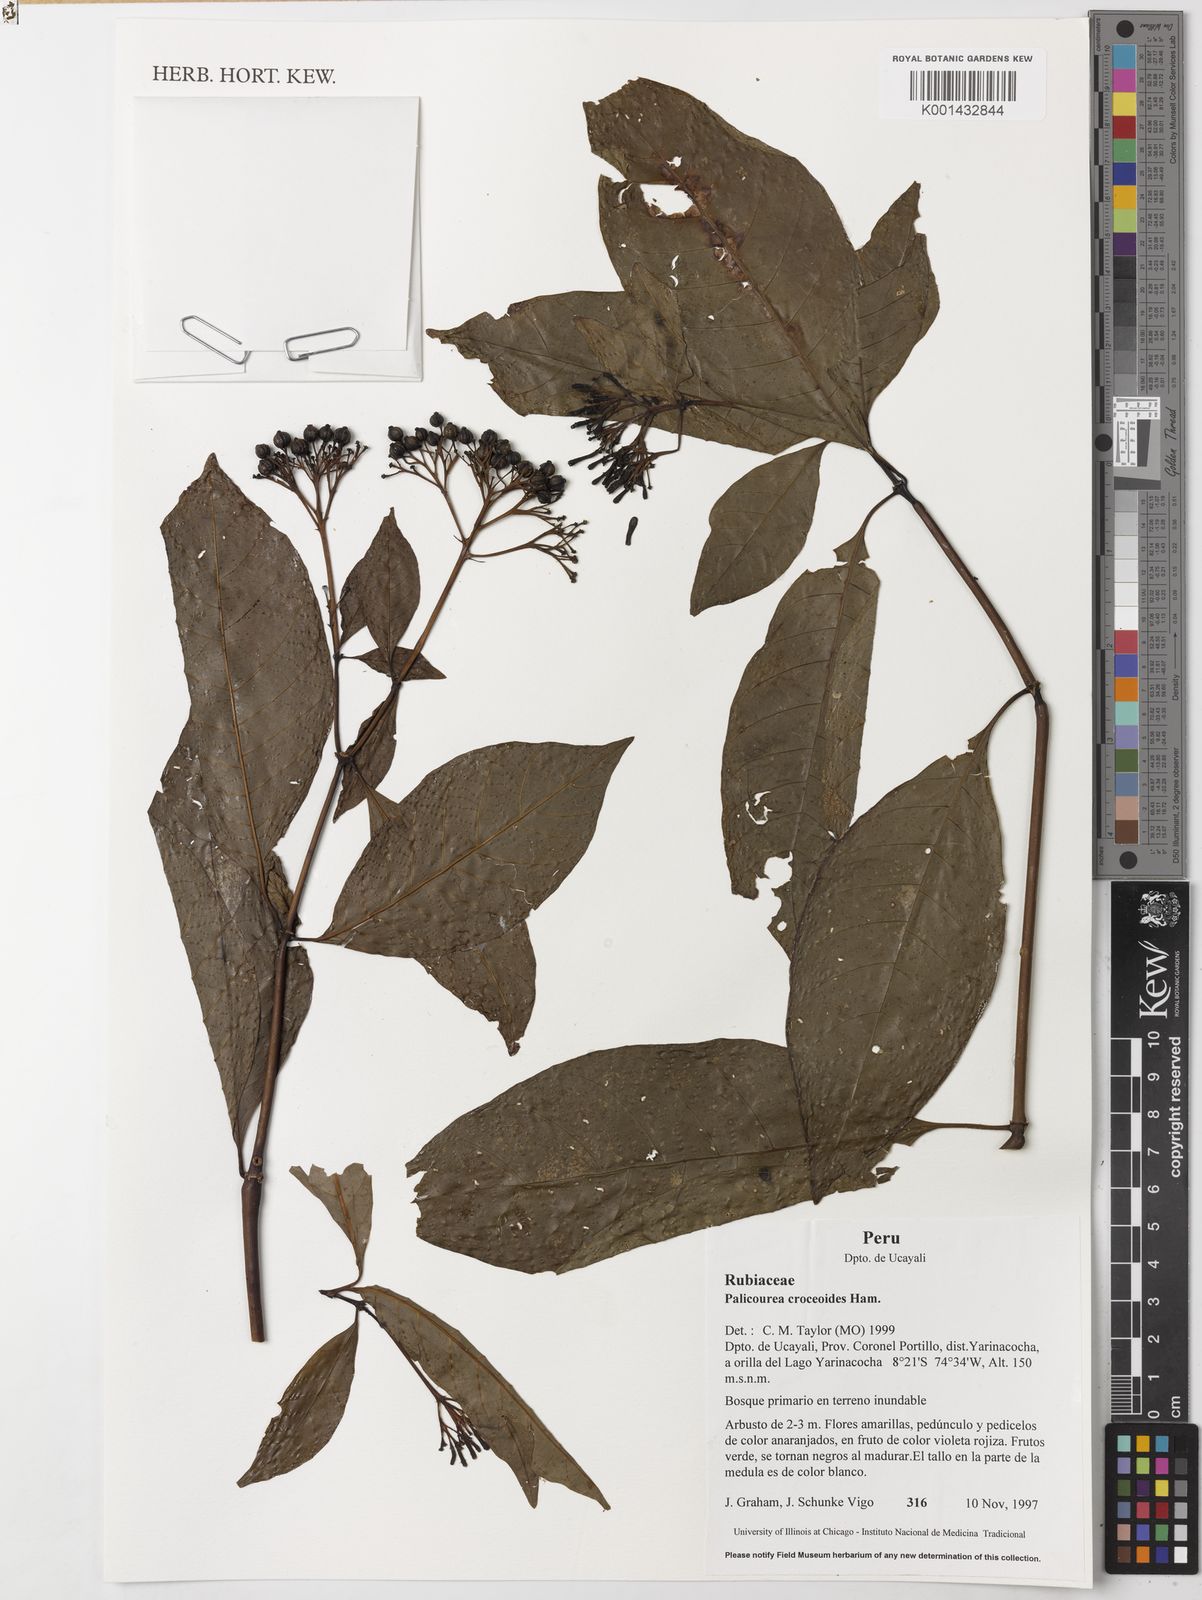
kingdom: Plantae
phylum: Tracheophyta
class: Magnoliopsida
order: Gentianales
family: Rubiaceae
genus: Palicourea
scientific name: Palicourea croceoides
